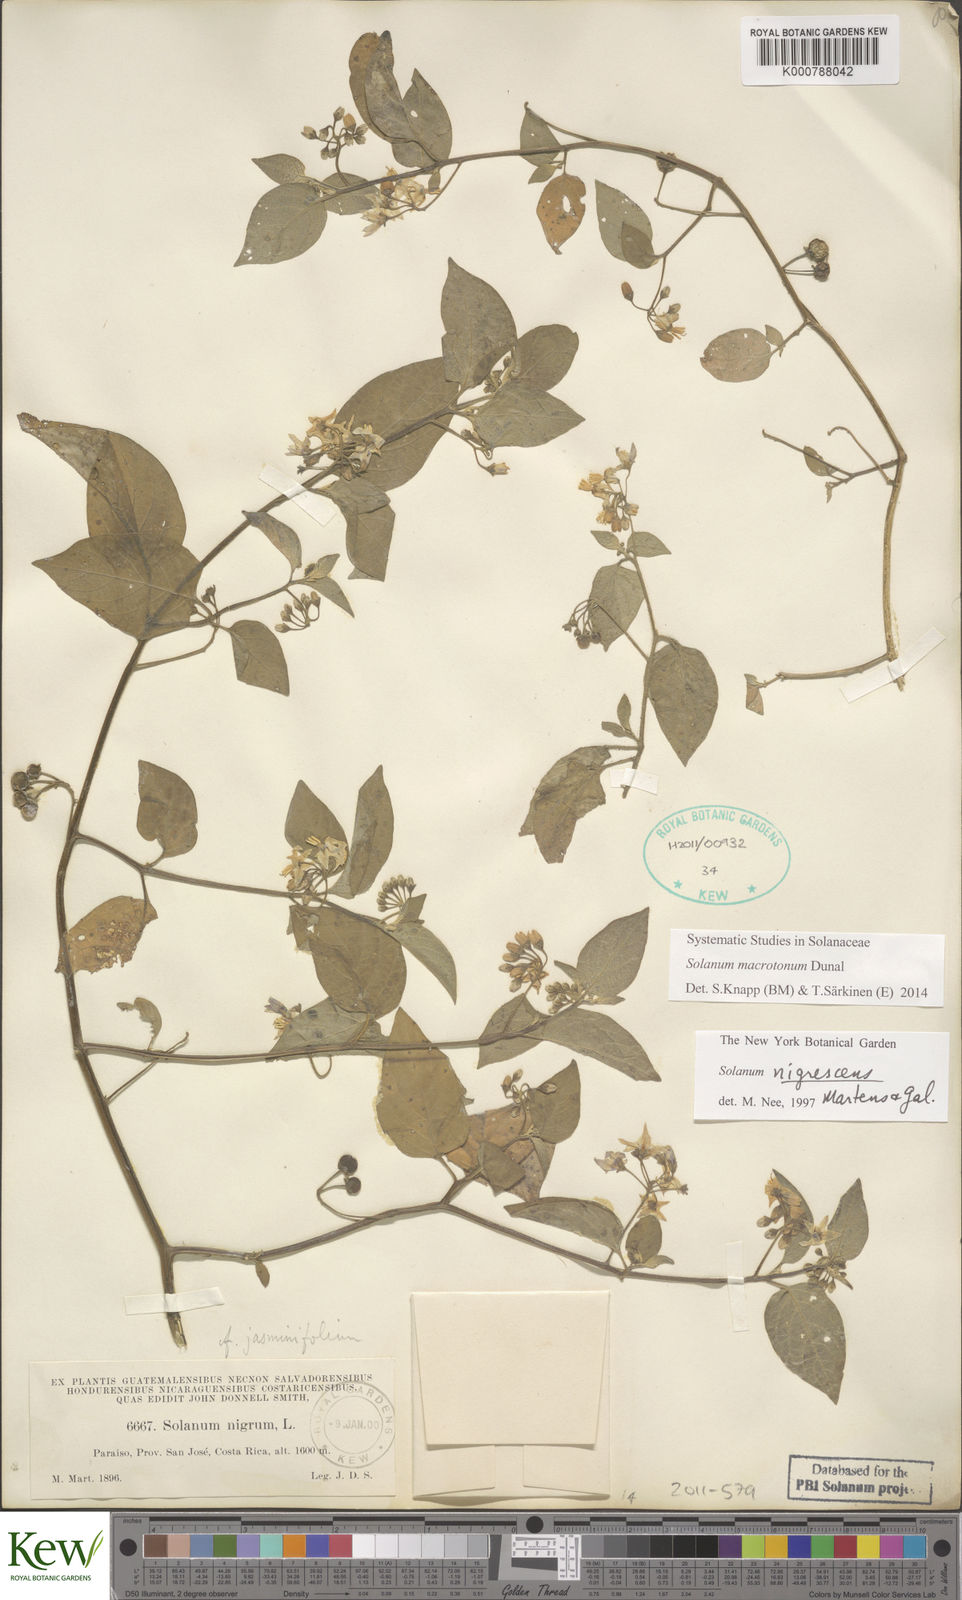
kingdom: Plantae
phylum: Tracheophyta
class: Magnoliopsida
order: Solanales
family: Solanaceae
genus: Solanum
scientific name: Solanum macrotonum
